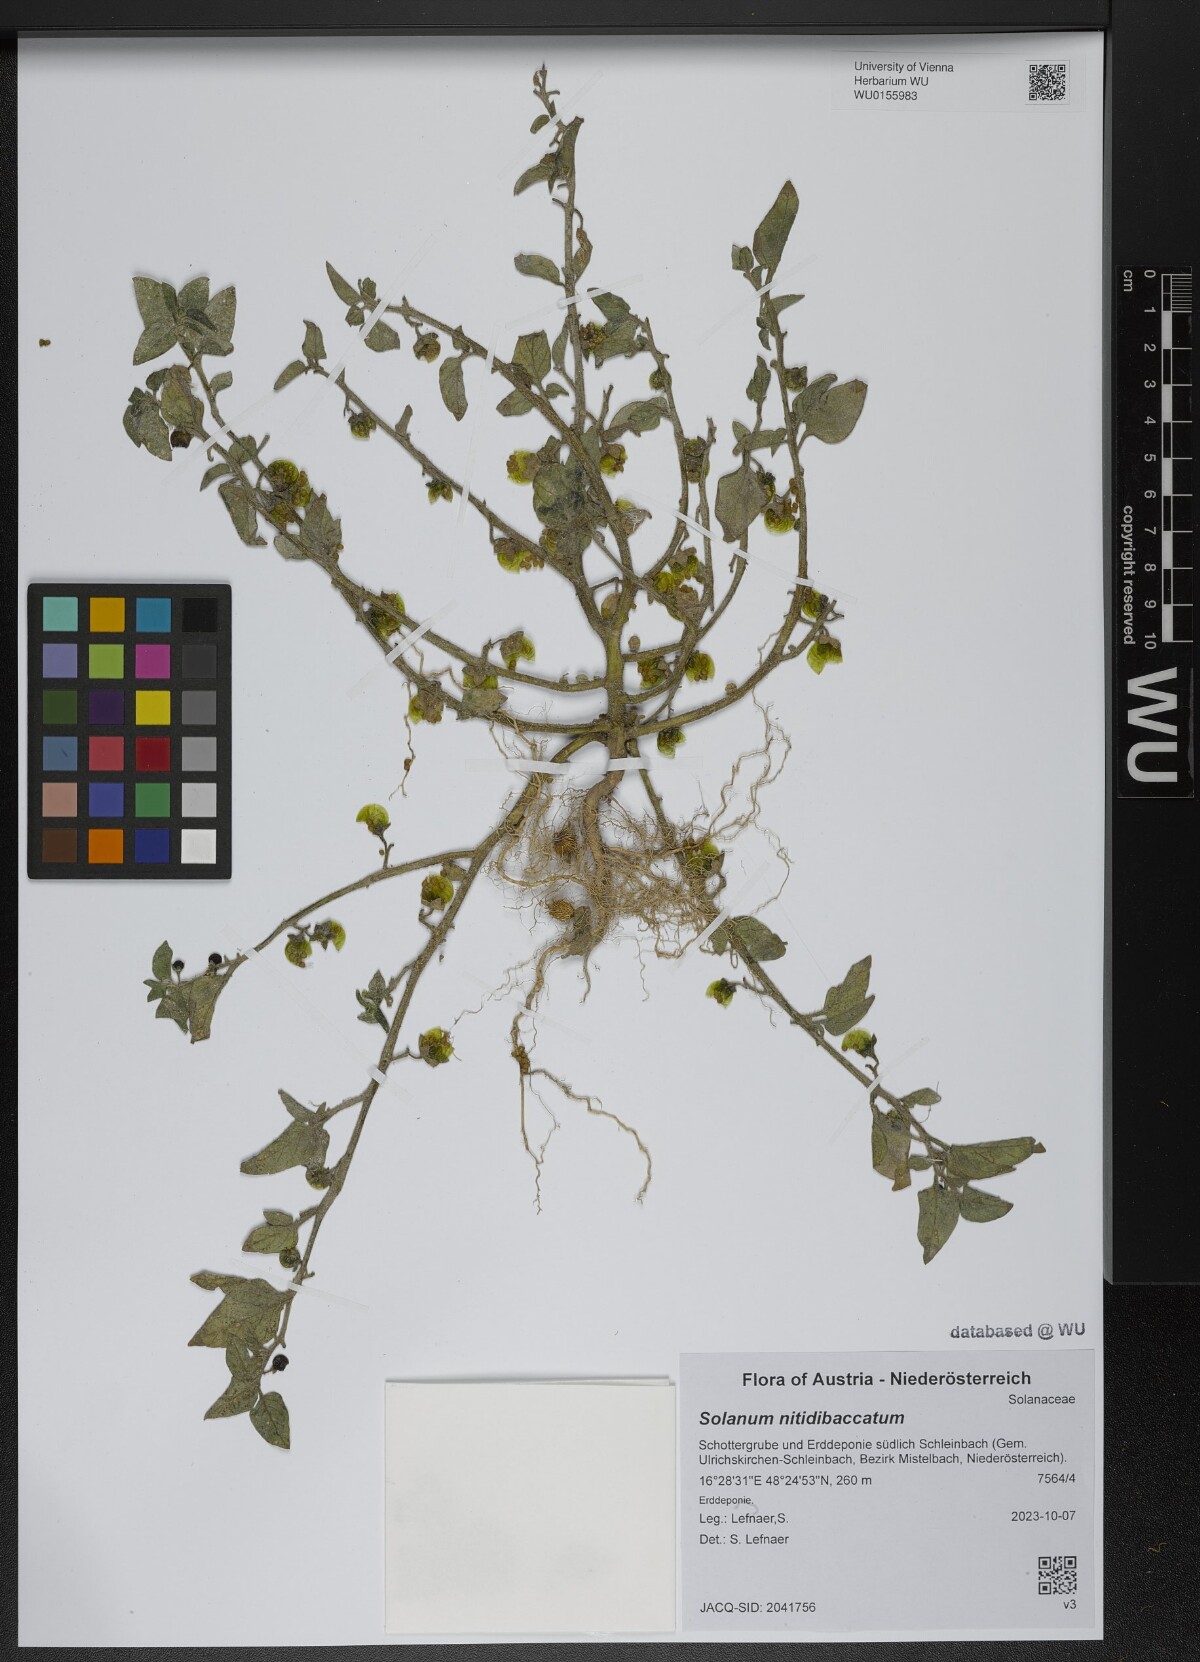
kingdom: Plantae
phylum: Tracheophyta
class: Magnoliopsida
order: Solanales
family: Solanaceae
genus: Solanum
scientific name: Solanum nitidibaccatum
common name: Hairy nightshade
